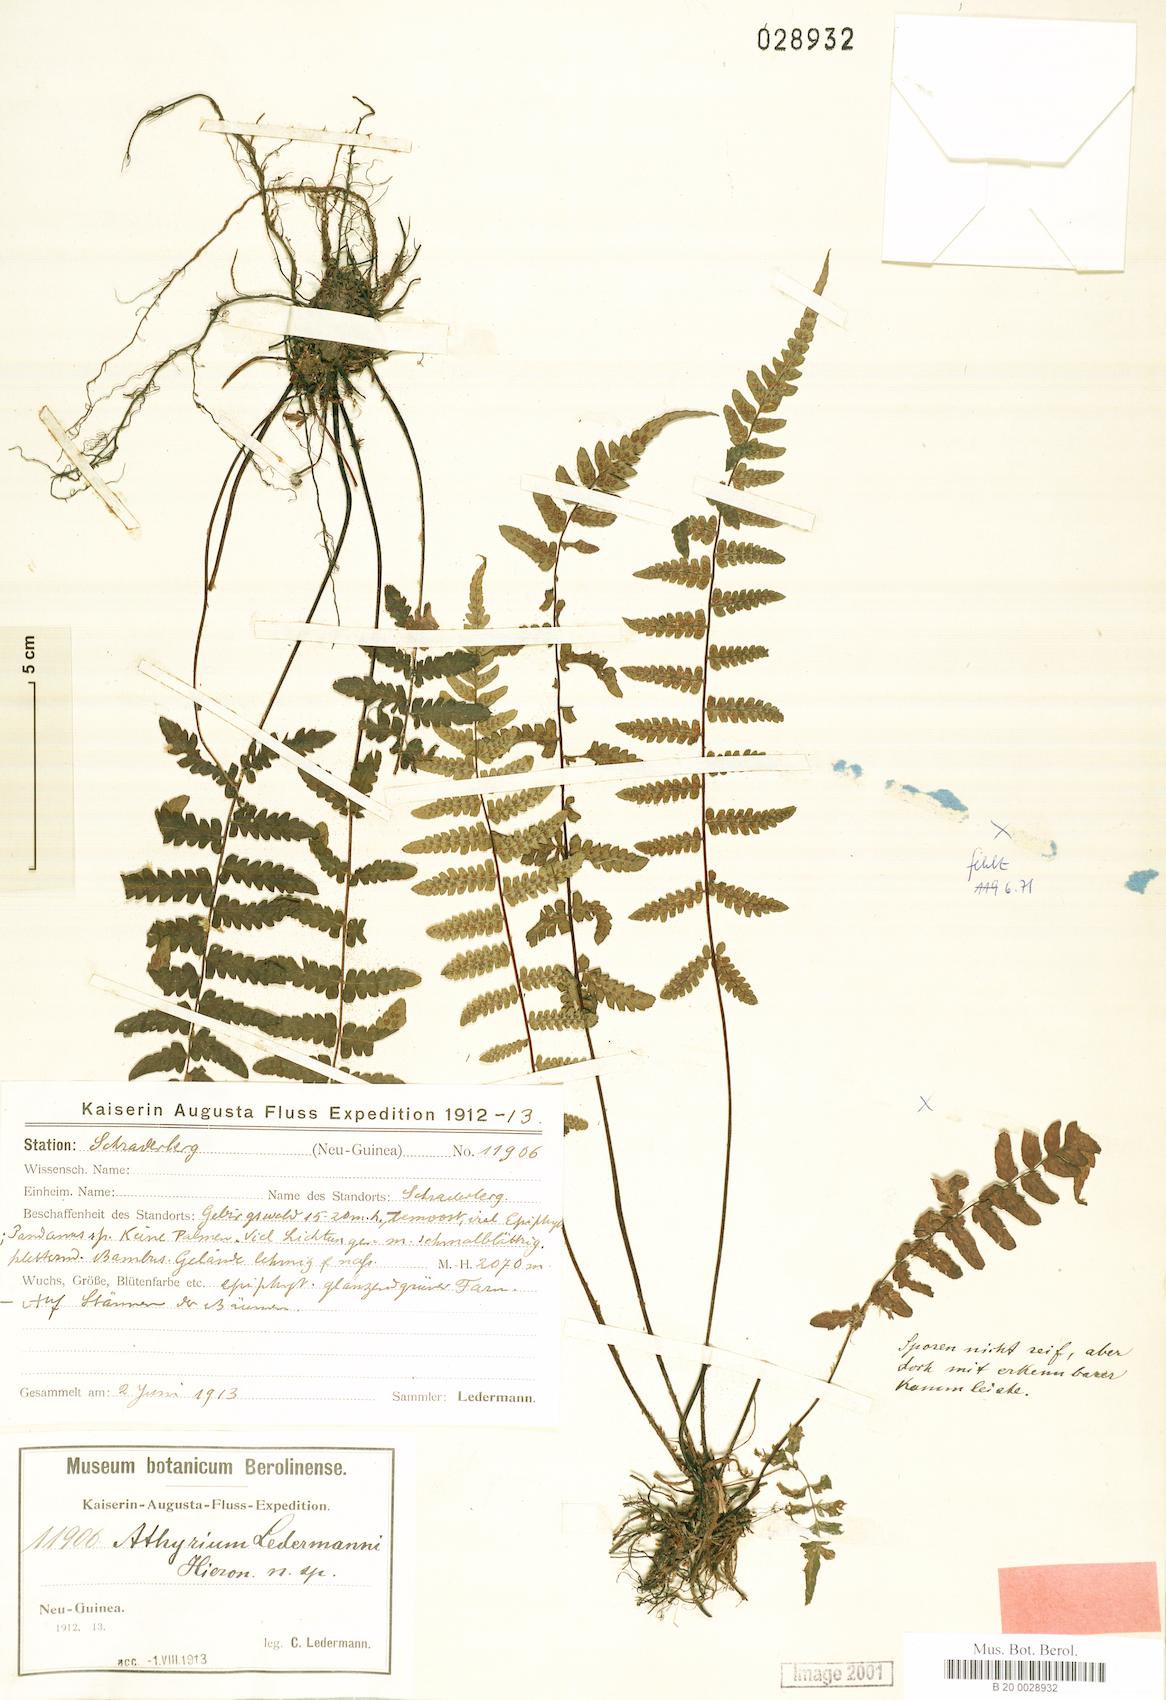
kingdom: Plantae
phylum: Tracheophyta
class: Polypodiopsida
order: Polypodiales
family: Thelypteridaceae
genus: Coryphopteris
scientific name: Coryphopteris ledermannii
